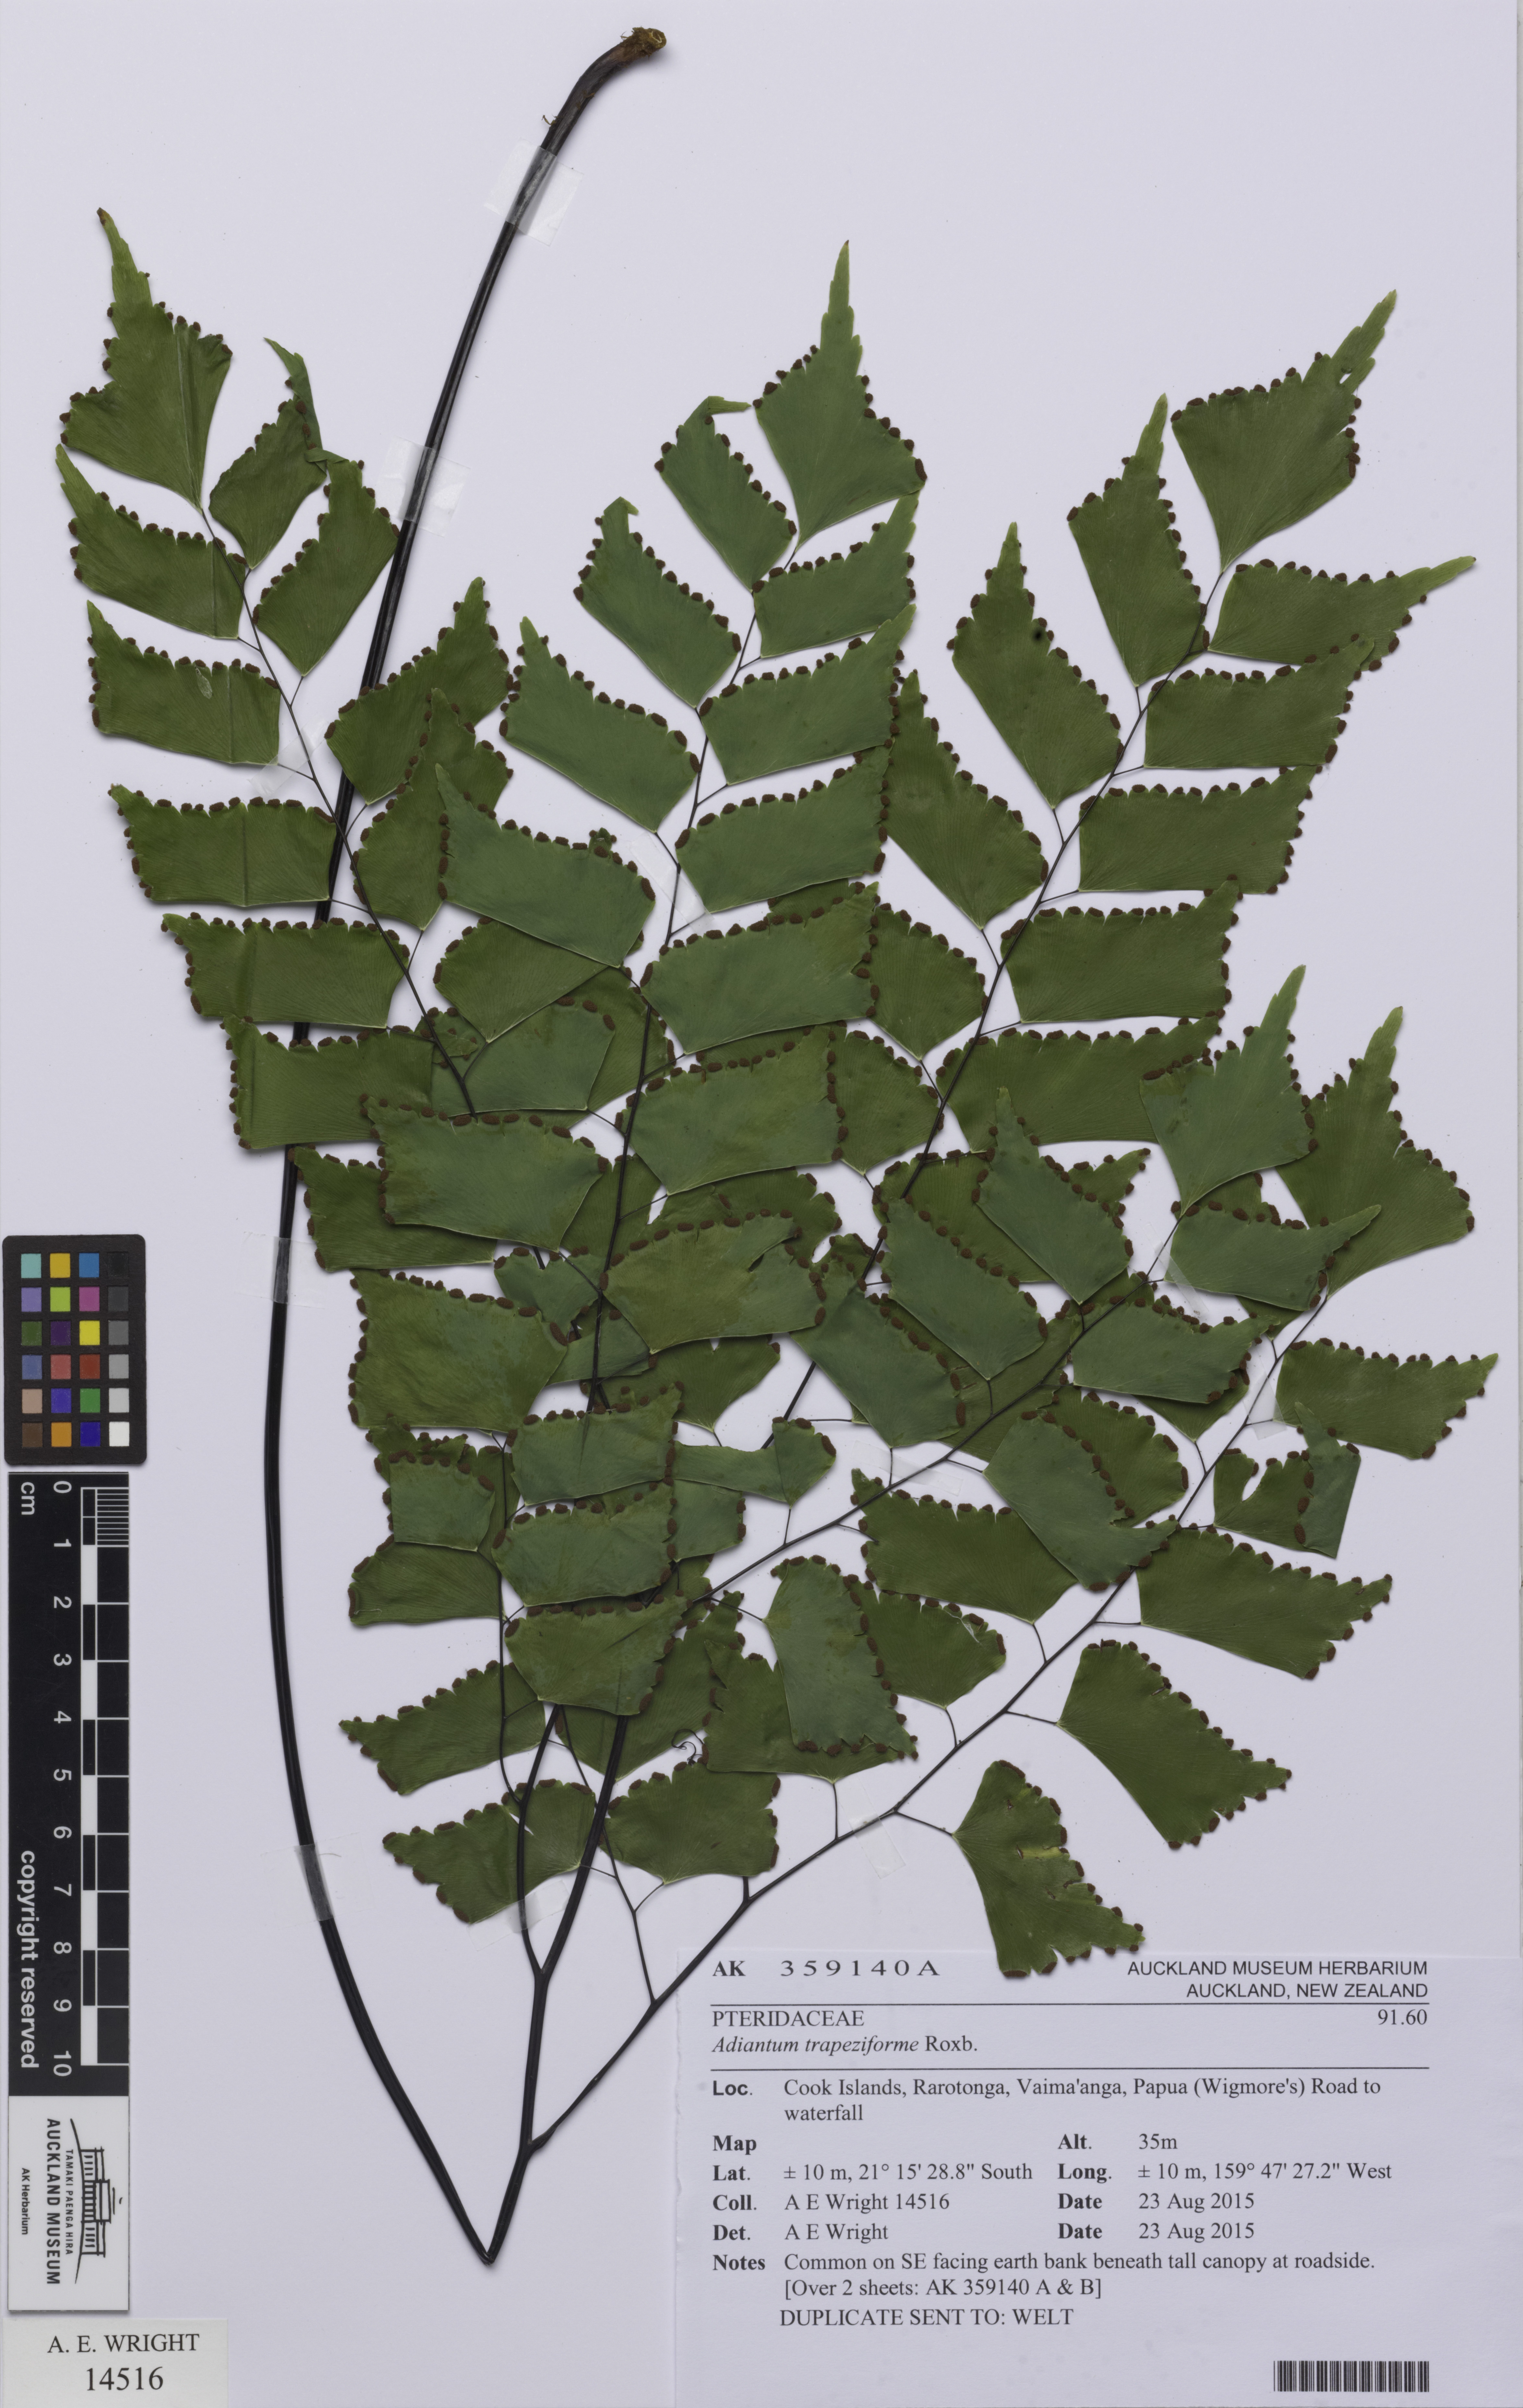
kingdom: Plantae
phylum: Tracheophyta
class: Polypodiopsida
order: Polypodiales
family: Pteridaceae
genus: Adiantum
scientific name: Adiantum trapeziforme
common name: Diamond maidenhair
